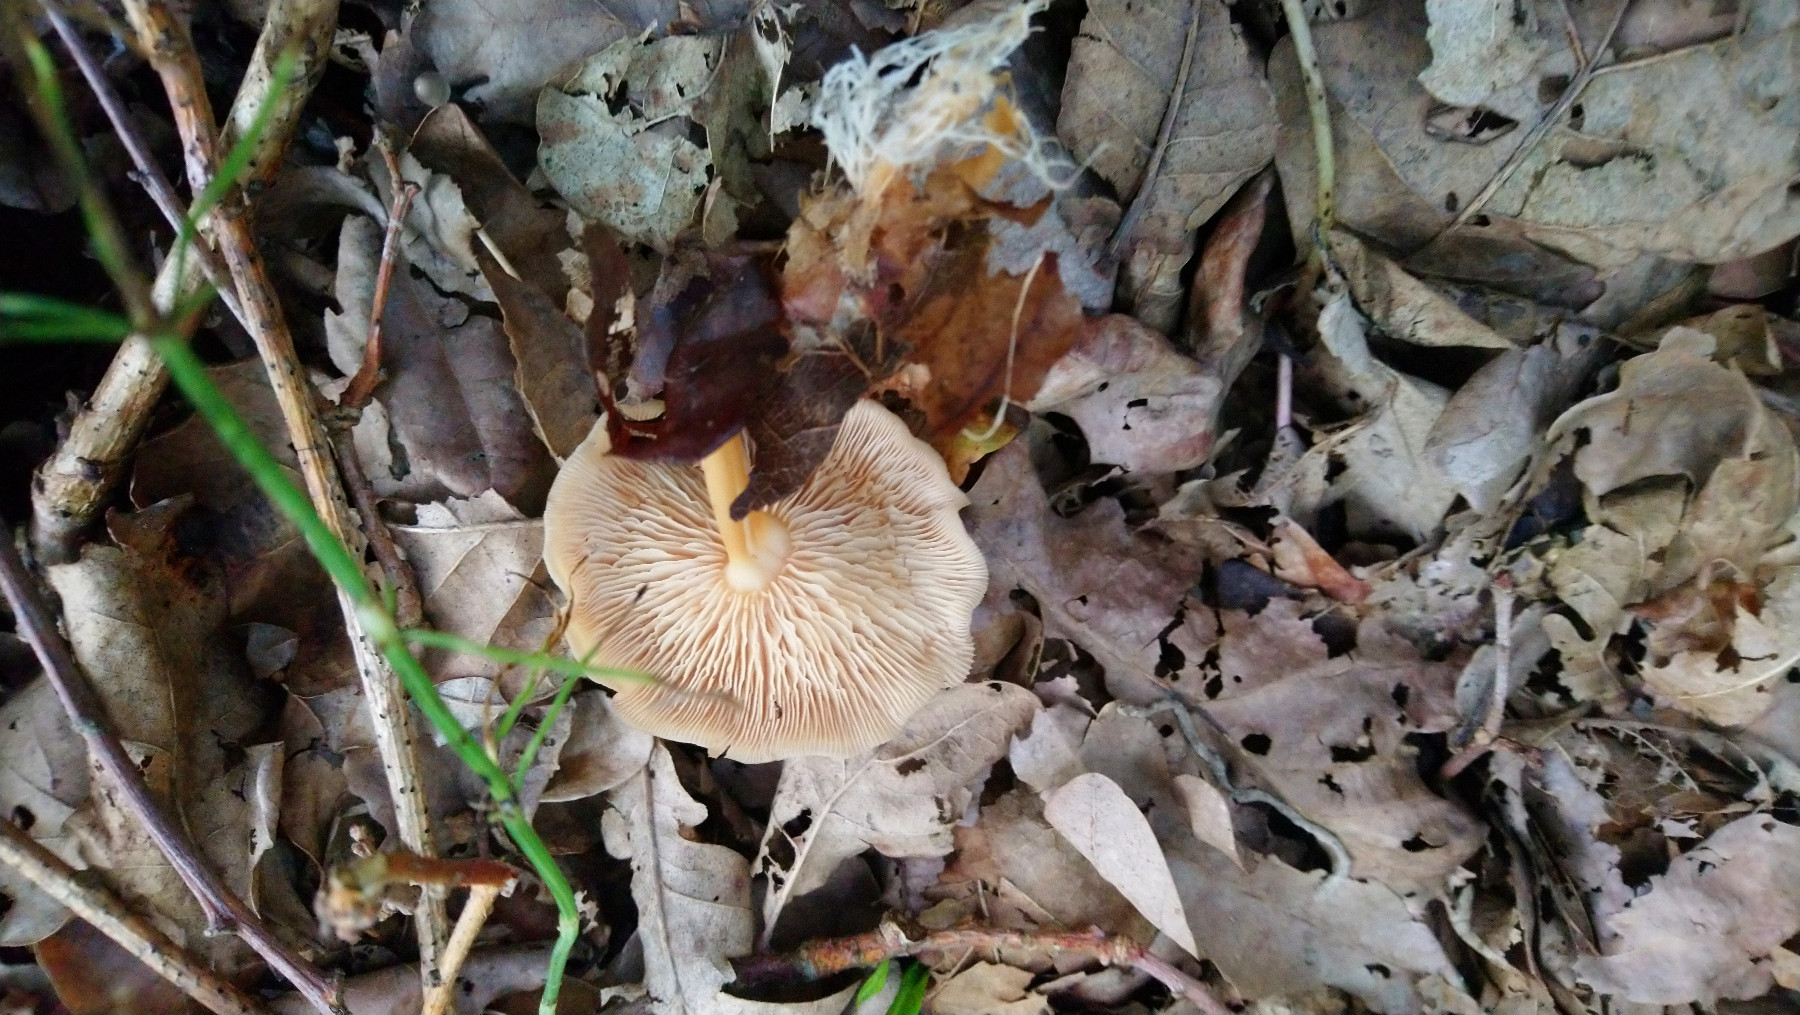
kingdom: Fungi
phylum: Basidiomycota
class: Agaricomycetes
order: Agaricales
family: Omphalotaceae
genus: Gymnopus
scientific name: Gymnopus dryophilus
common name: løv-fladhat
